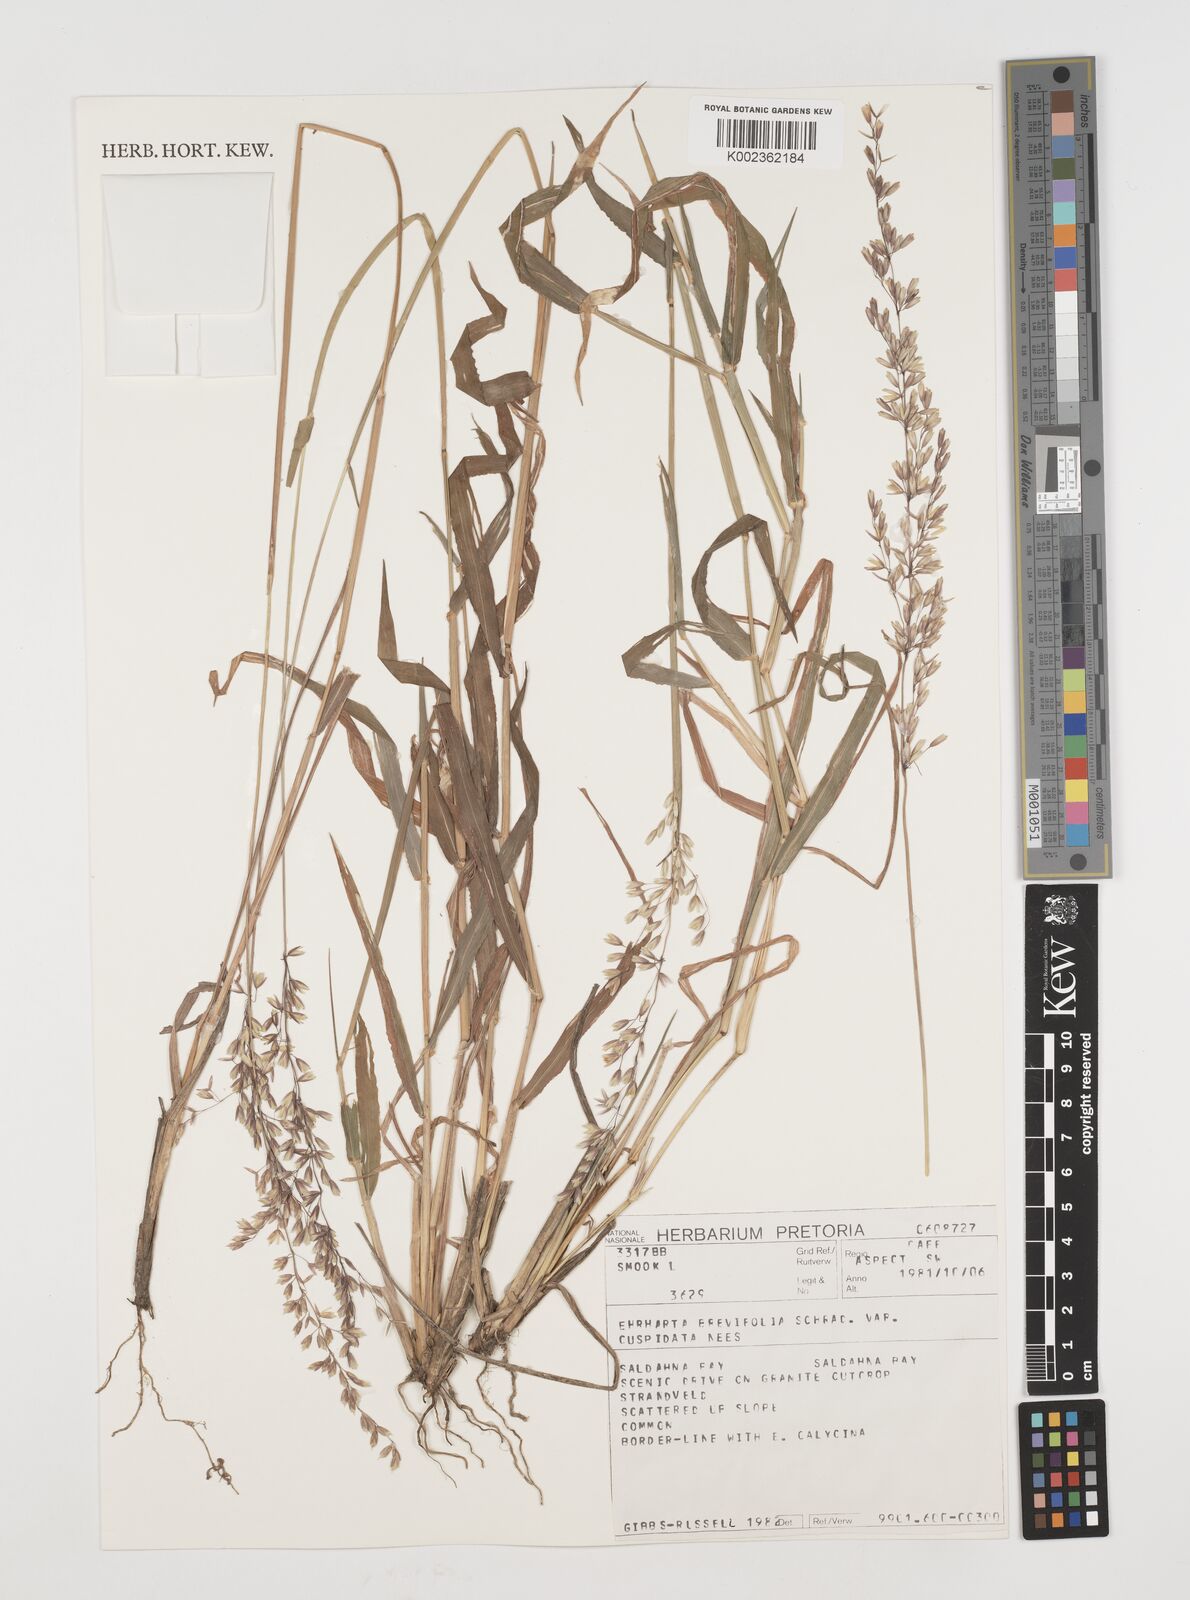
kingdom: Plantae
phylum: Tracheophyta
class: Liliopsida
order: Poales
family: Poaceae
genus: Ehrharta
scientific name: Ehrharta
